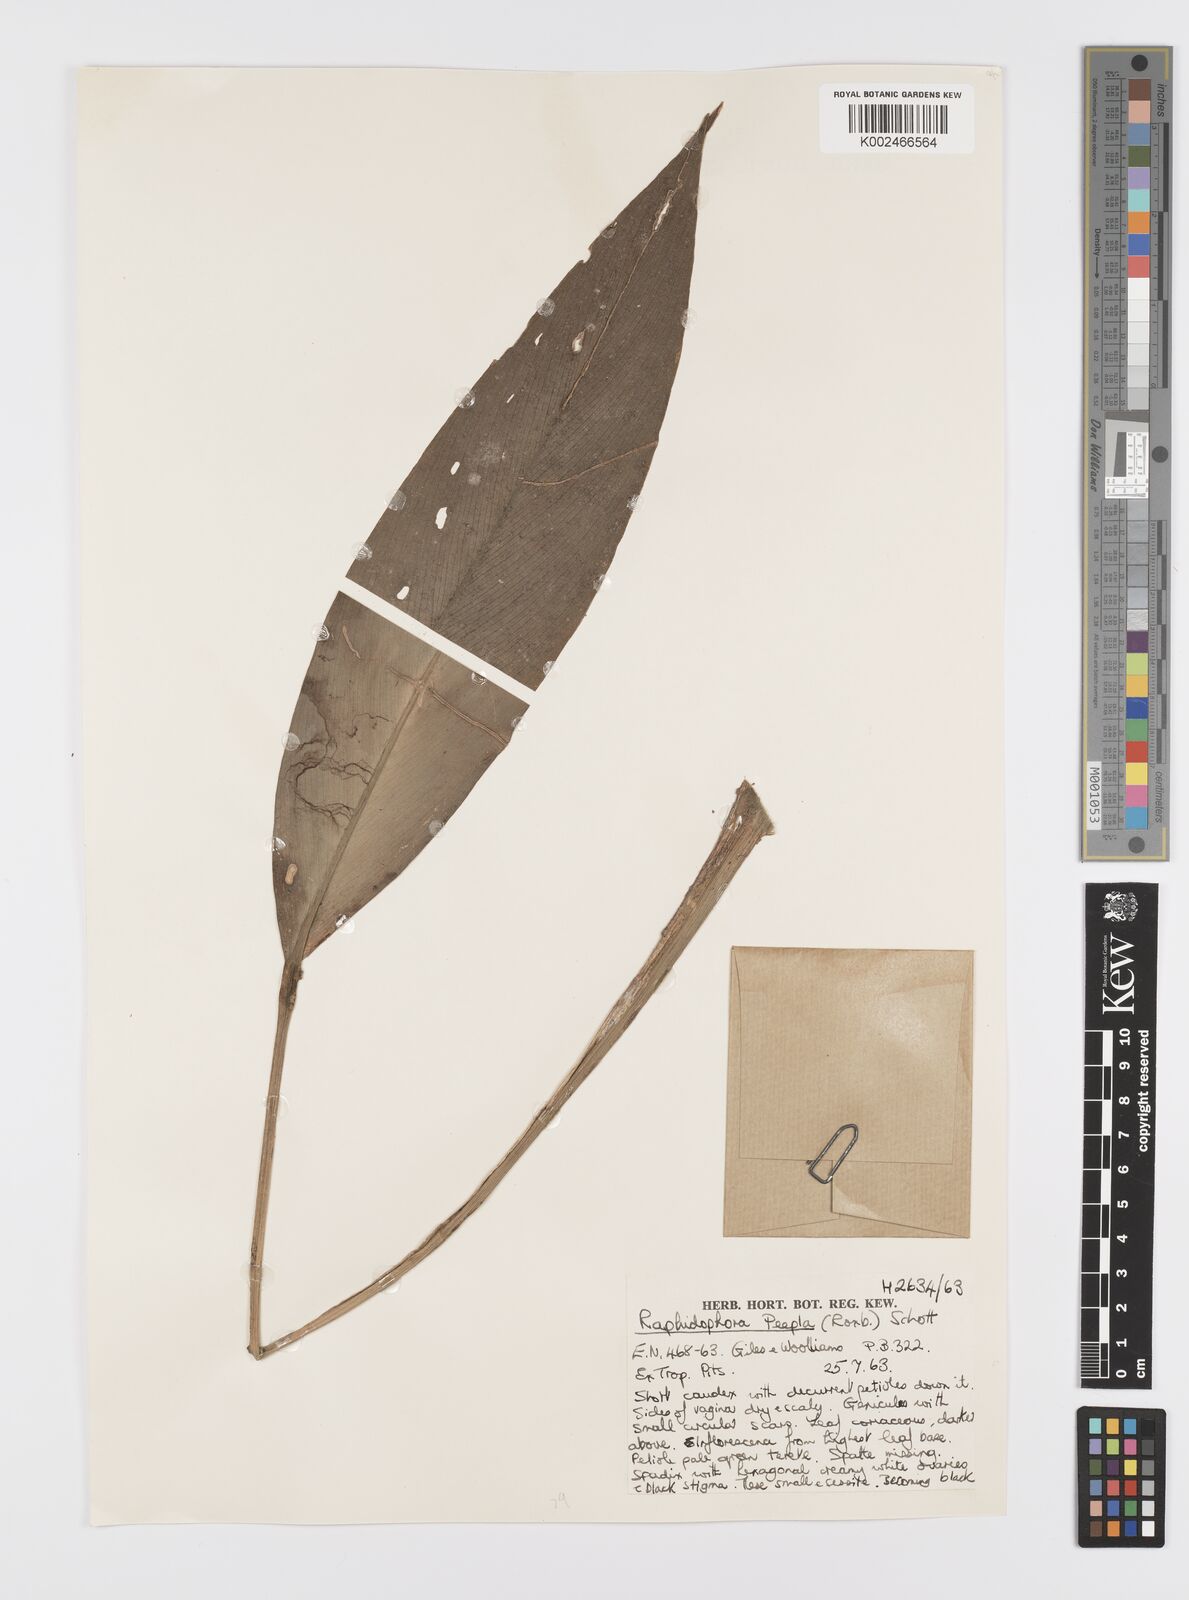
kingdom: Plantae
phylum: Tracheophyta
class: Liliopsida
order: Alismatales
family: Araceae
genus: Scindapsus
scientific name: Scindapsus coriaceus
